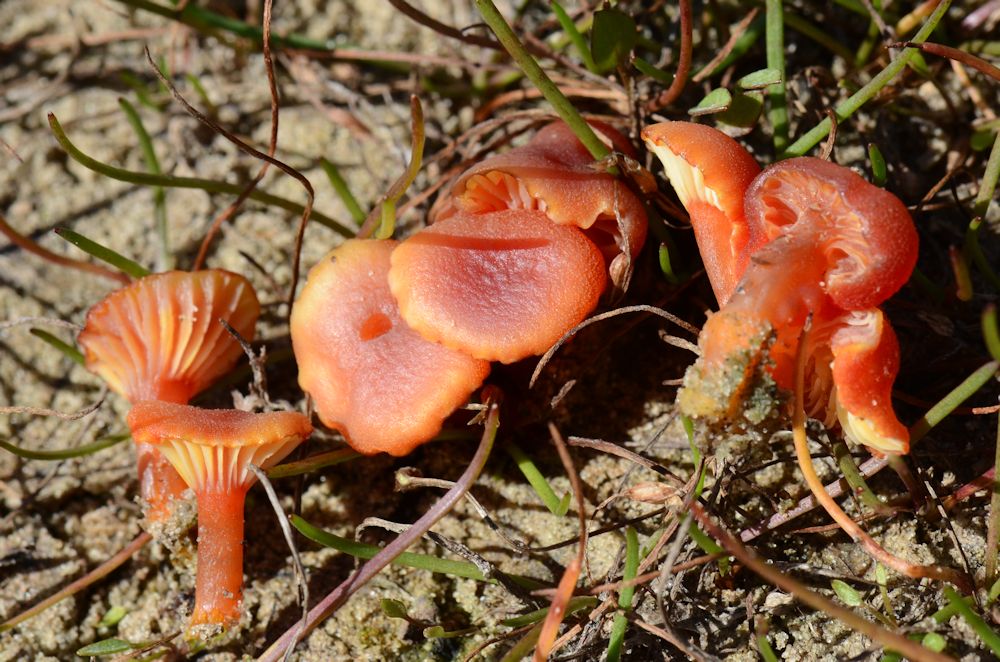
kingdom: Fungi
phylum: Basidiomycota
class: Agaricomycetes
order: Agaricales
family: Hygrophoraceae
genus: Hygrocybe
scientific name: Hygrocybe cantharellus
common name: kantarel-vokshat
